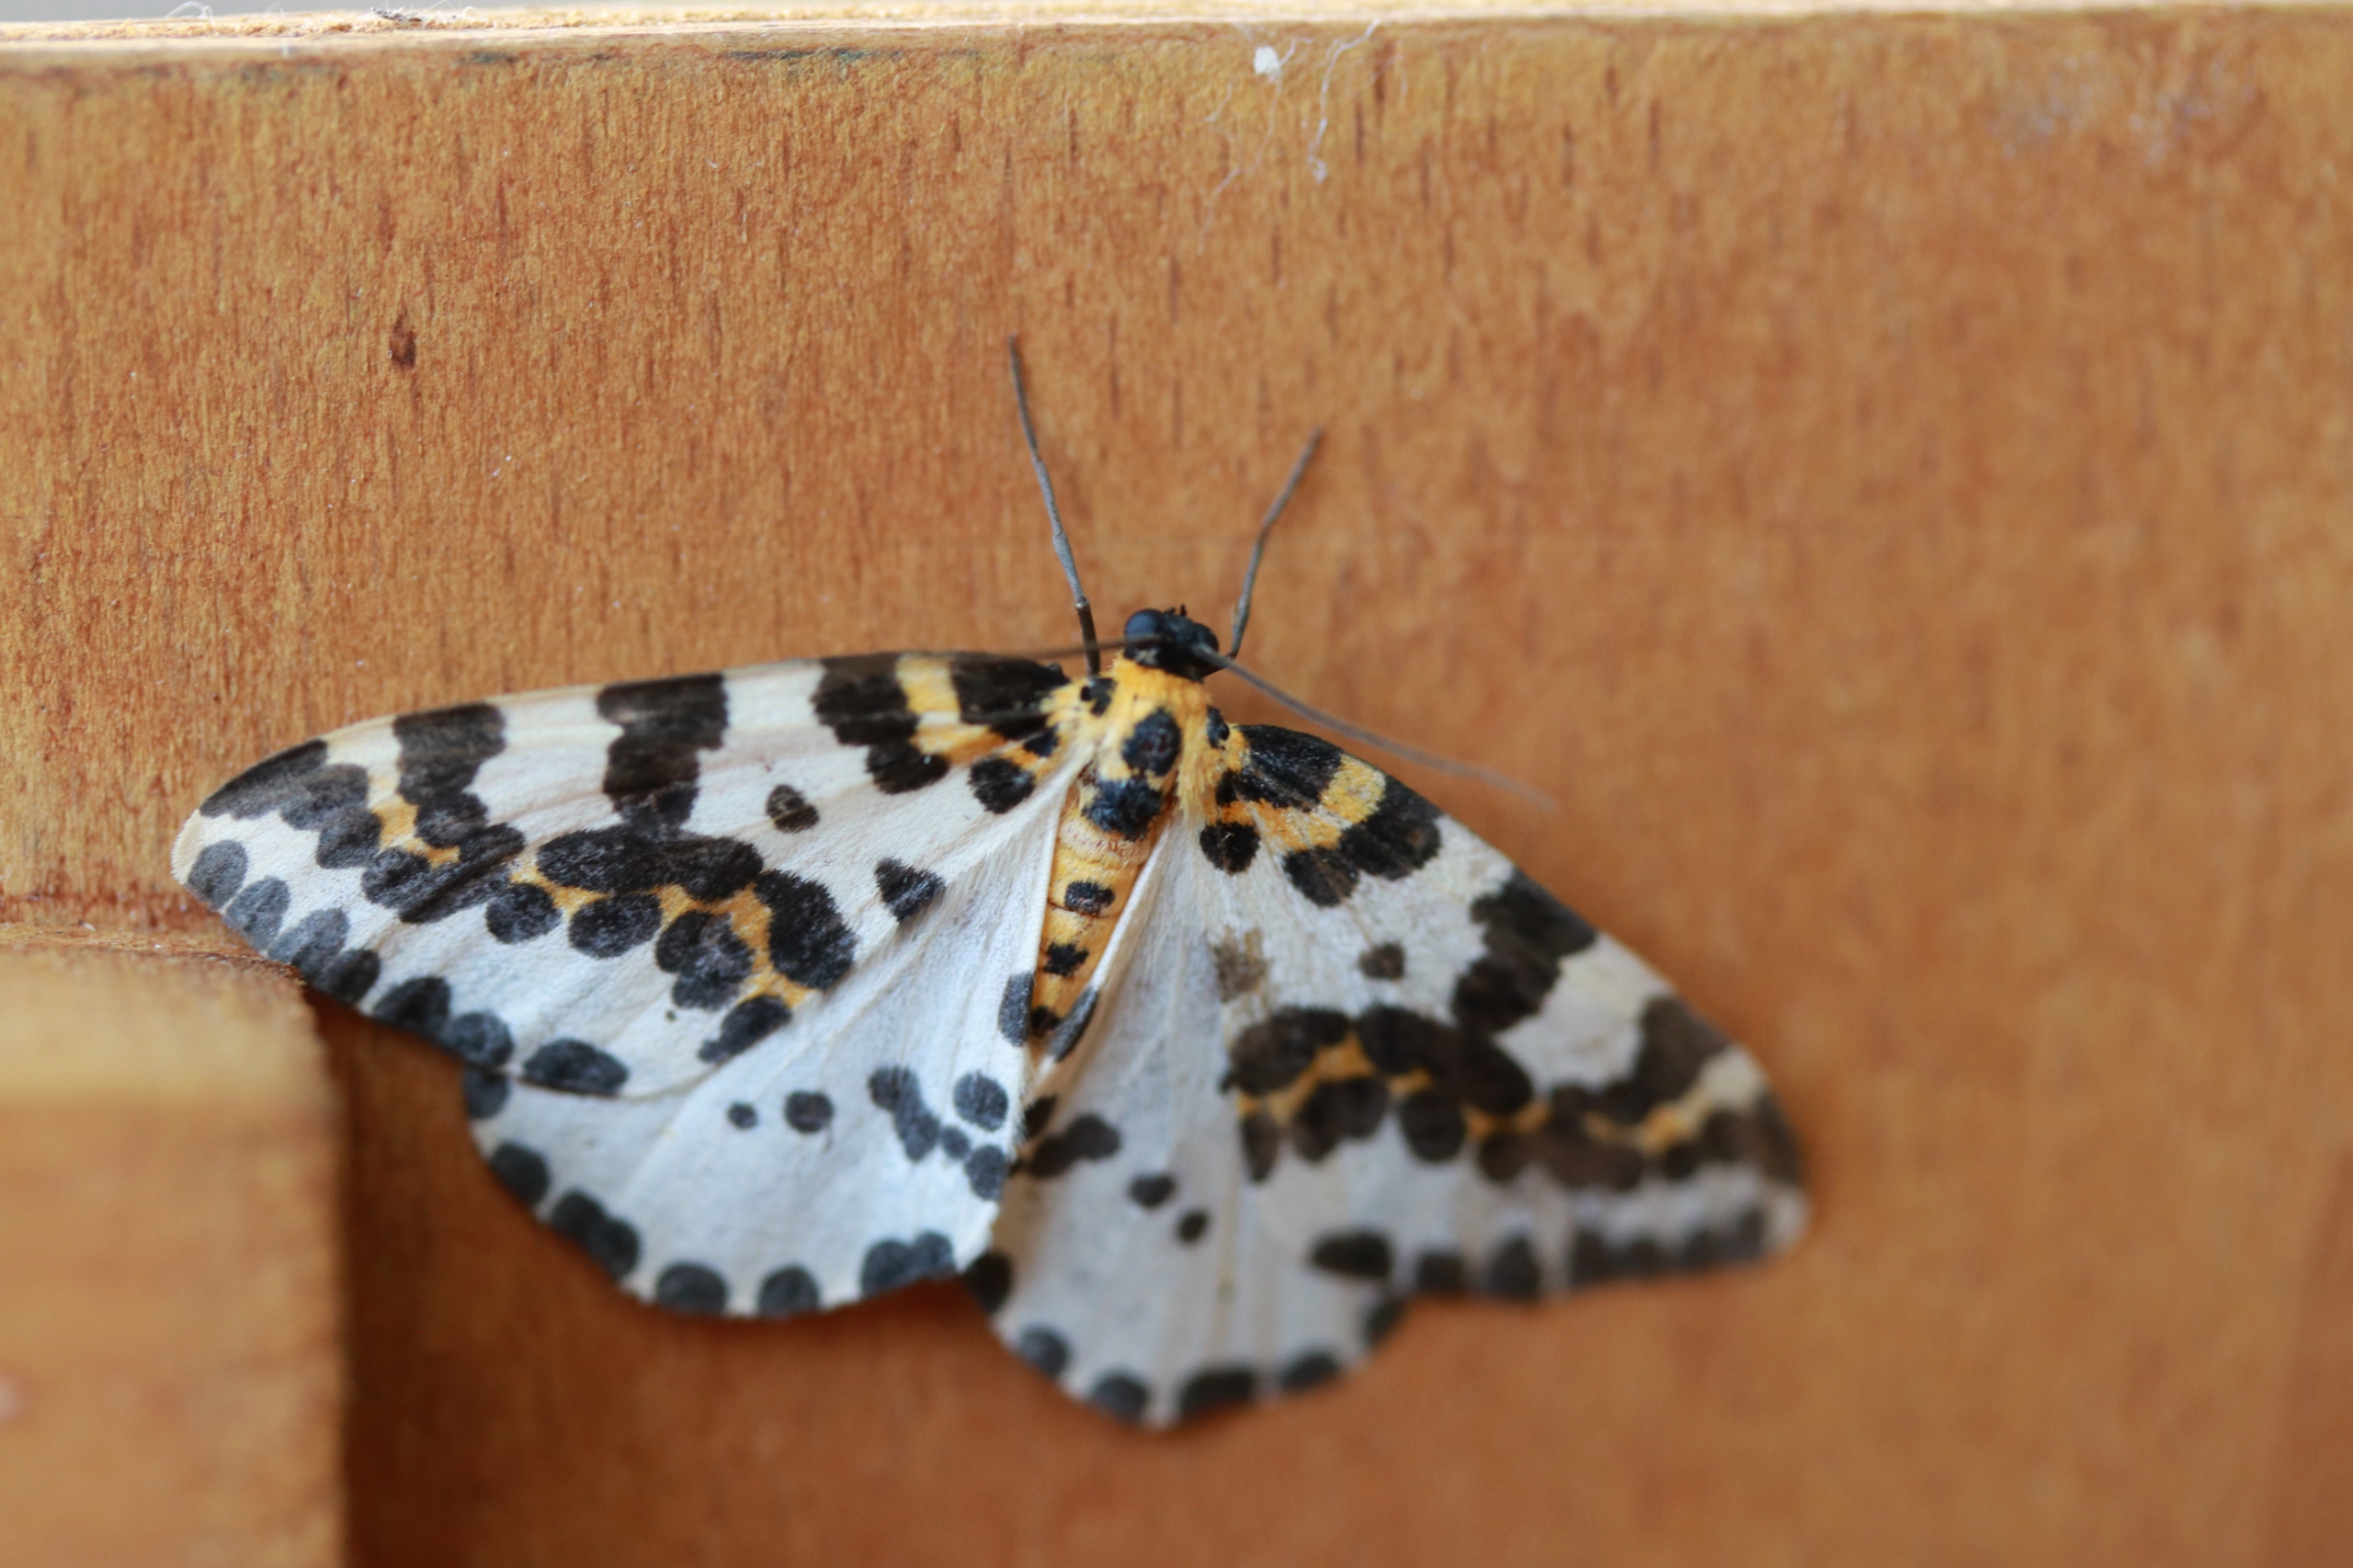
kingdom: Animalia
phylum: Arthropoda
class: Insecta
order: Lepidoptera
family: Geometridae
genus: Abraxas
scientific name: Abraxas grossulariata
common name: Harlekin
